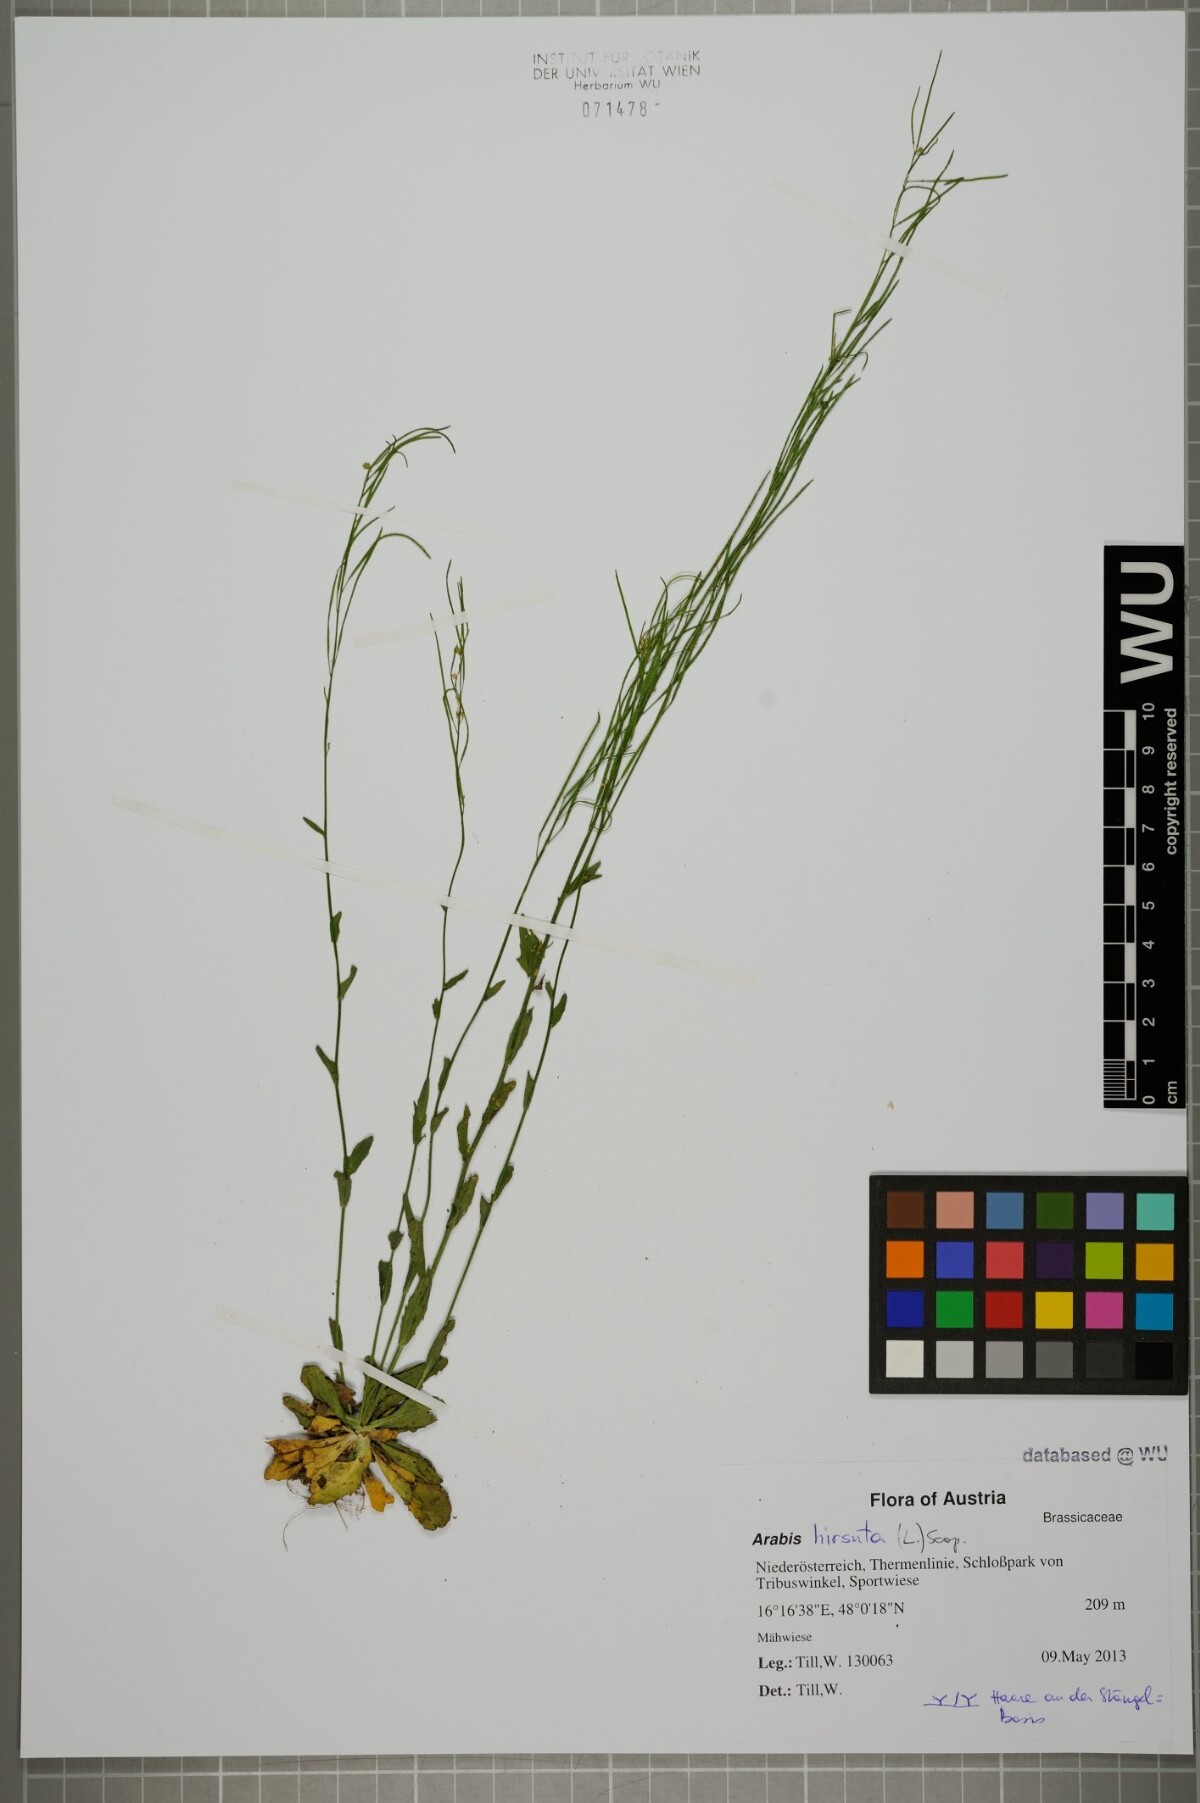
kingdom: Plantae
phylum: Tracheophyta
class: Magnoliopsida
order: Brassicales
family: Brassicaceae
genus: Arabis
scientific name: Arabis hirsuta
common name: Hairy rock-cress
